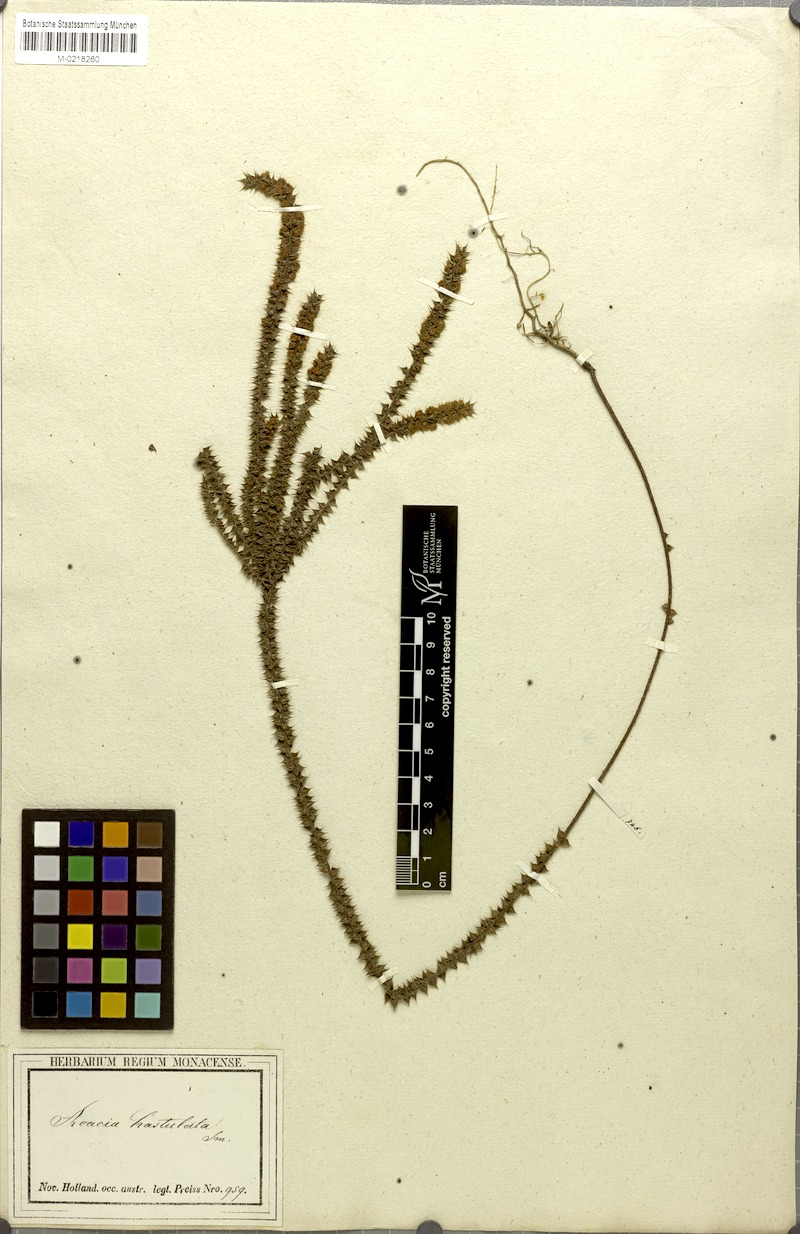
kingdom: Plantae
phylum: Tracheophyta
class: Magnoliopsida
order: Fabales
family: Fabaceae
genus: Acacia
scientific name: Acacia hastulata
